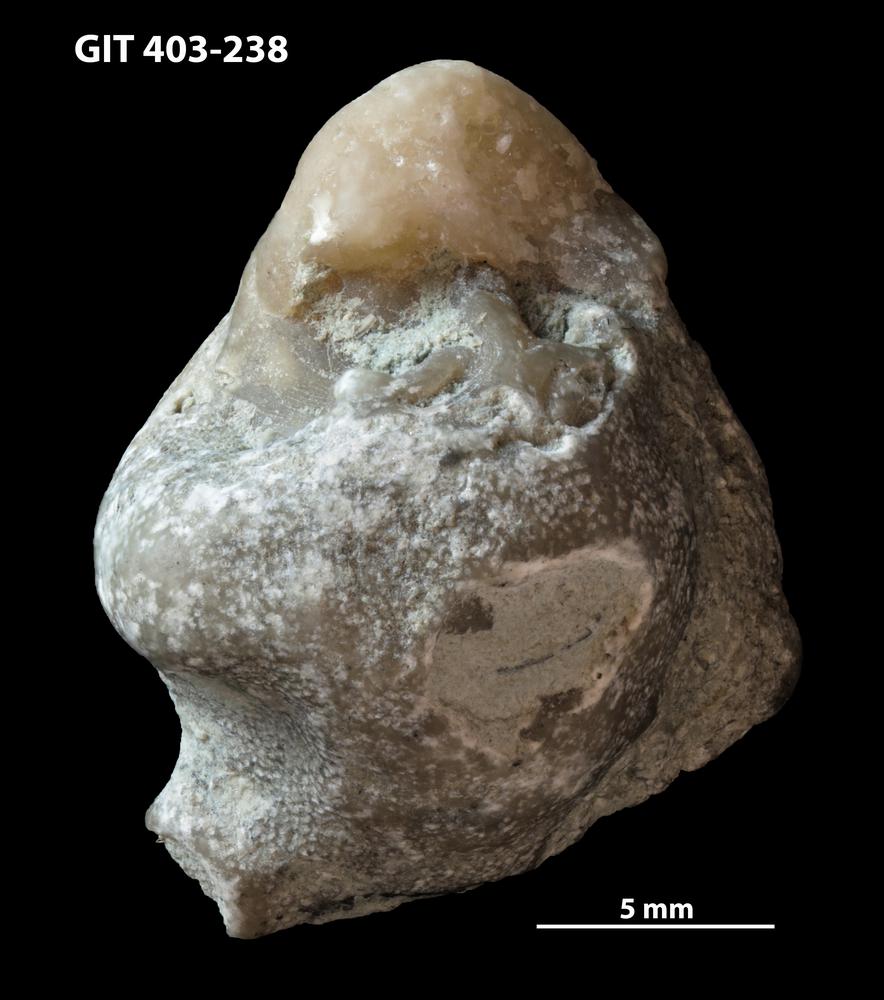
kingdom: Animalia
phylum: Bryozoa
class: Stenolaemata
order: Cystoporida
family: Fistuliporidae
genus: Fistulipora
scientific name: Fistulipora przhidolensis
